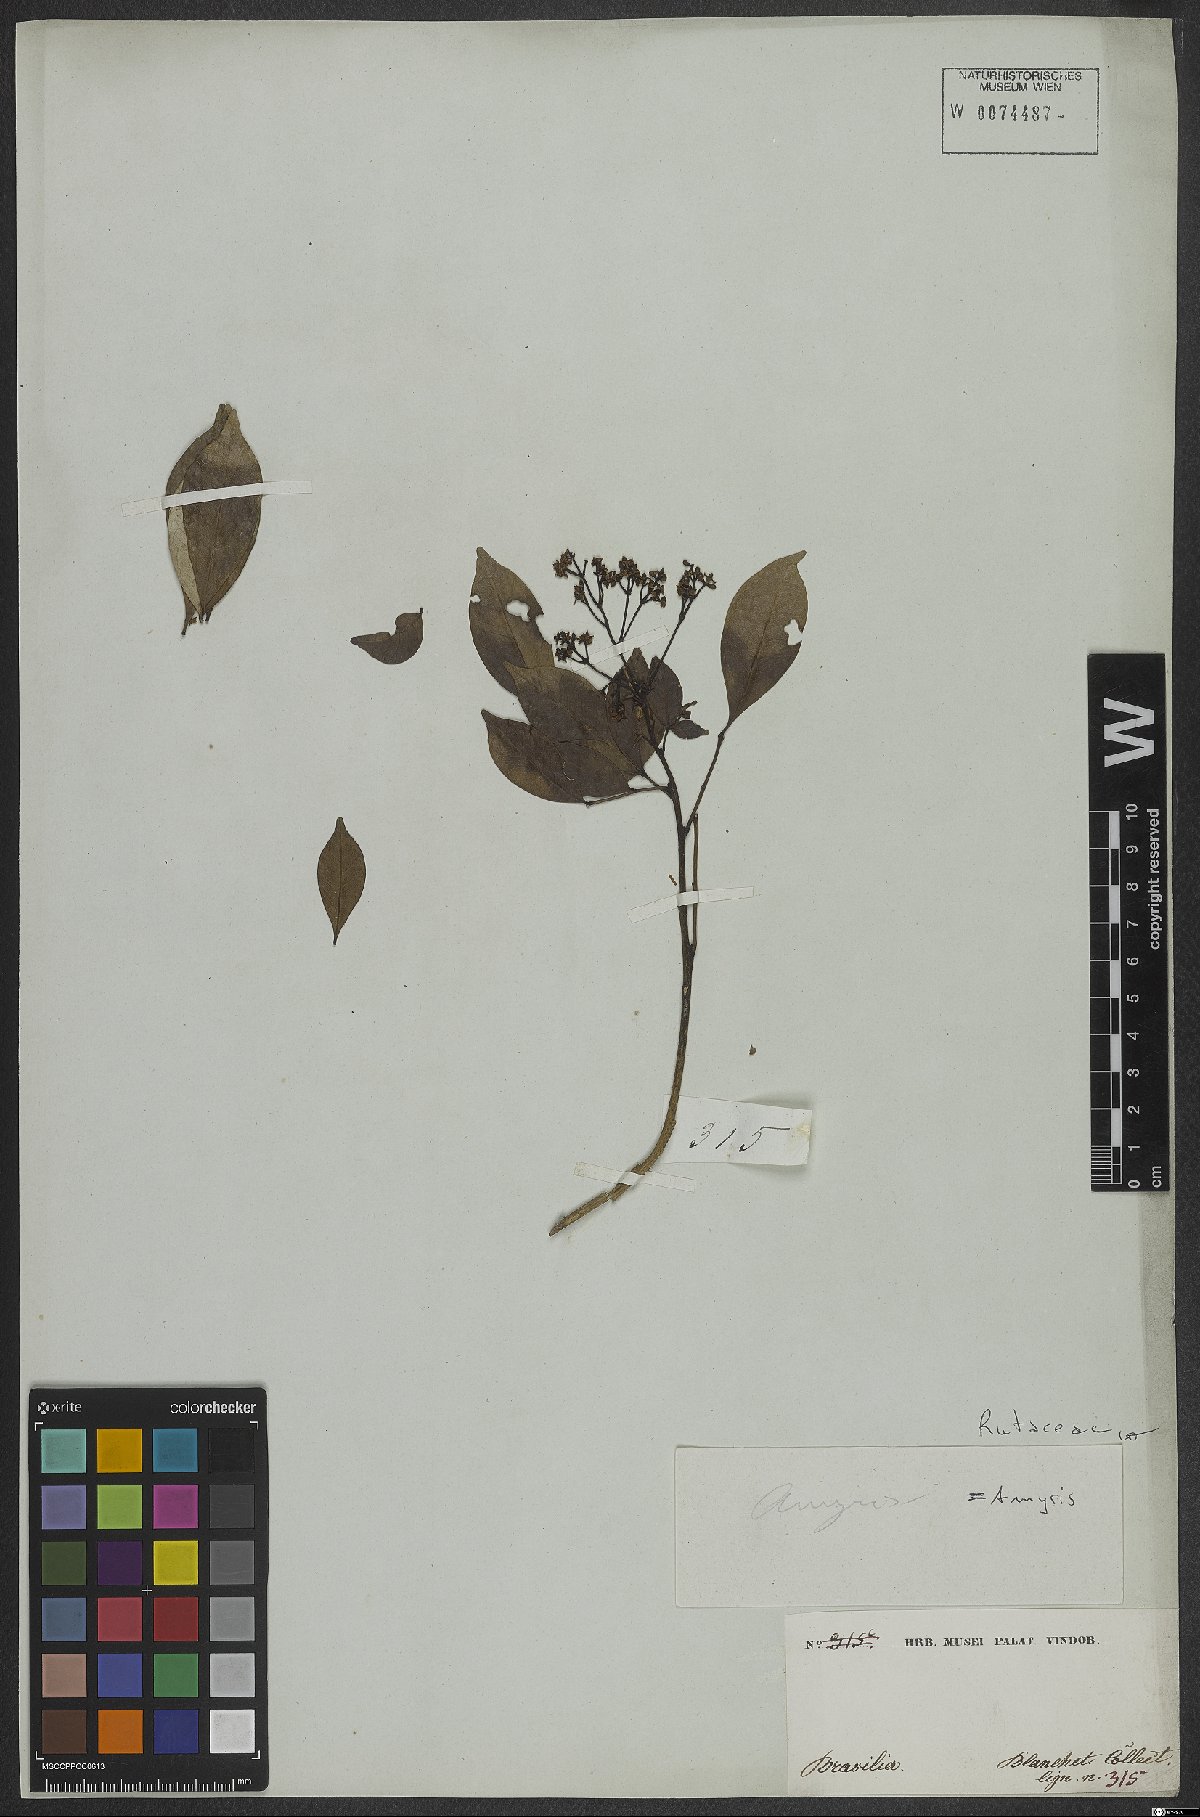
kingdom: Plantae
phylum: Tracheophyta
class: Magnoliopsida
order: Sapindales
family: Rutaceae
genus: Amyris
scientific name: Amyris
